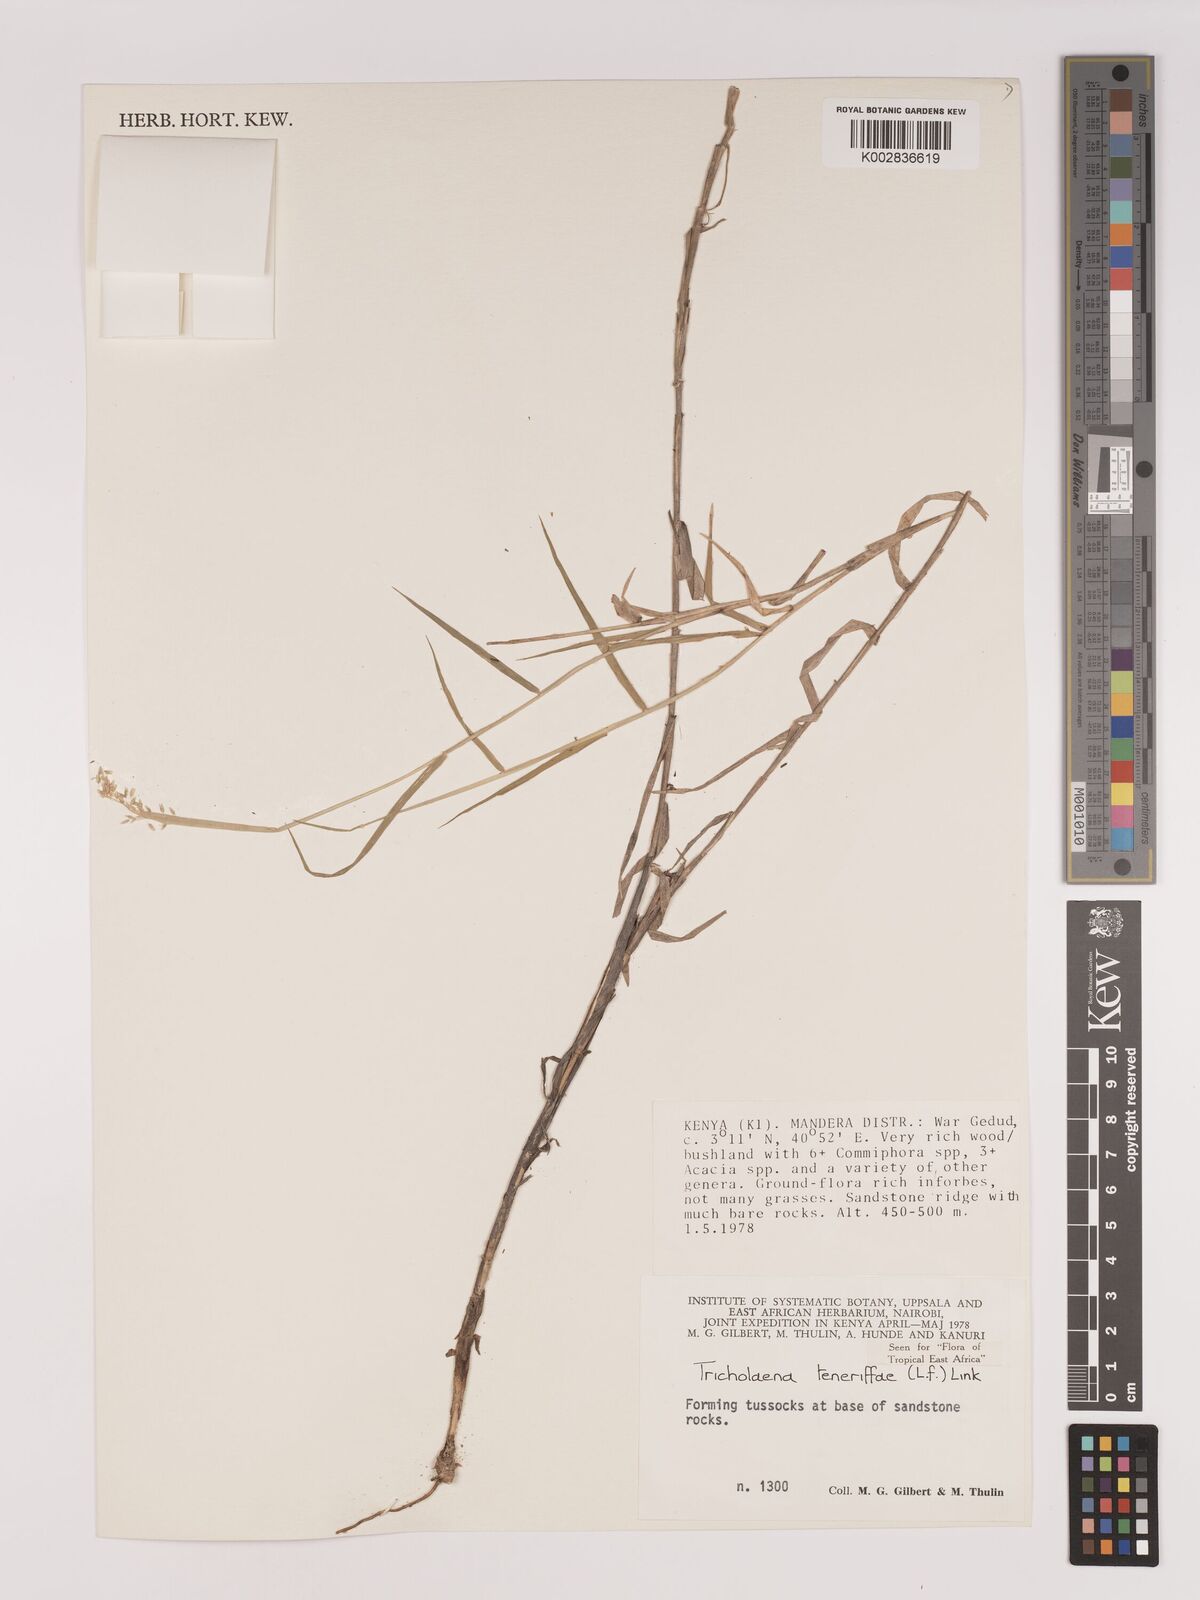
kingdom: Plantae
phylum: Tracheophyta
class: Liliopsida
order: Poales
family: Poaceae
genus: Tricholaena
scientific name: Tricholaena teneriffae
